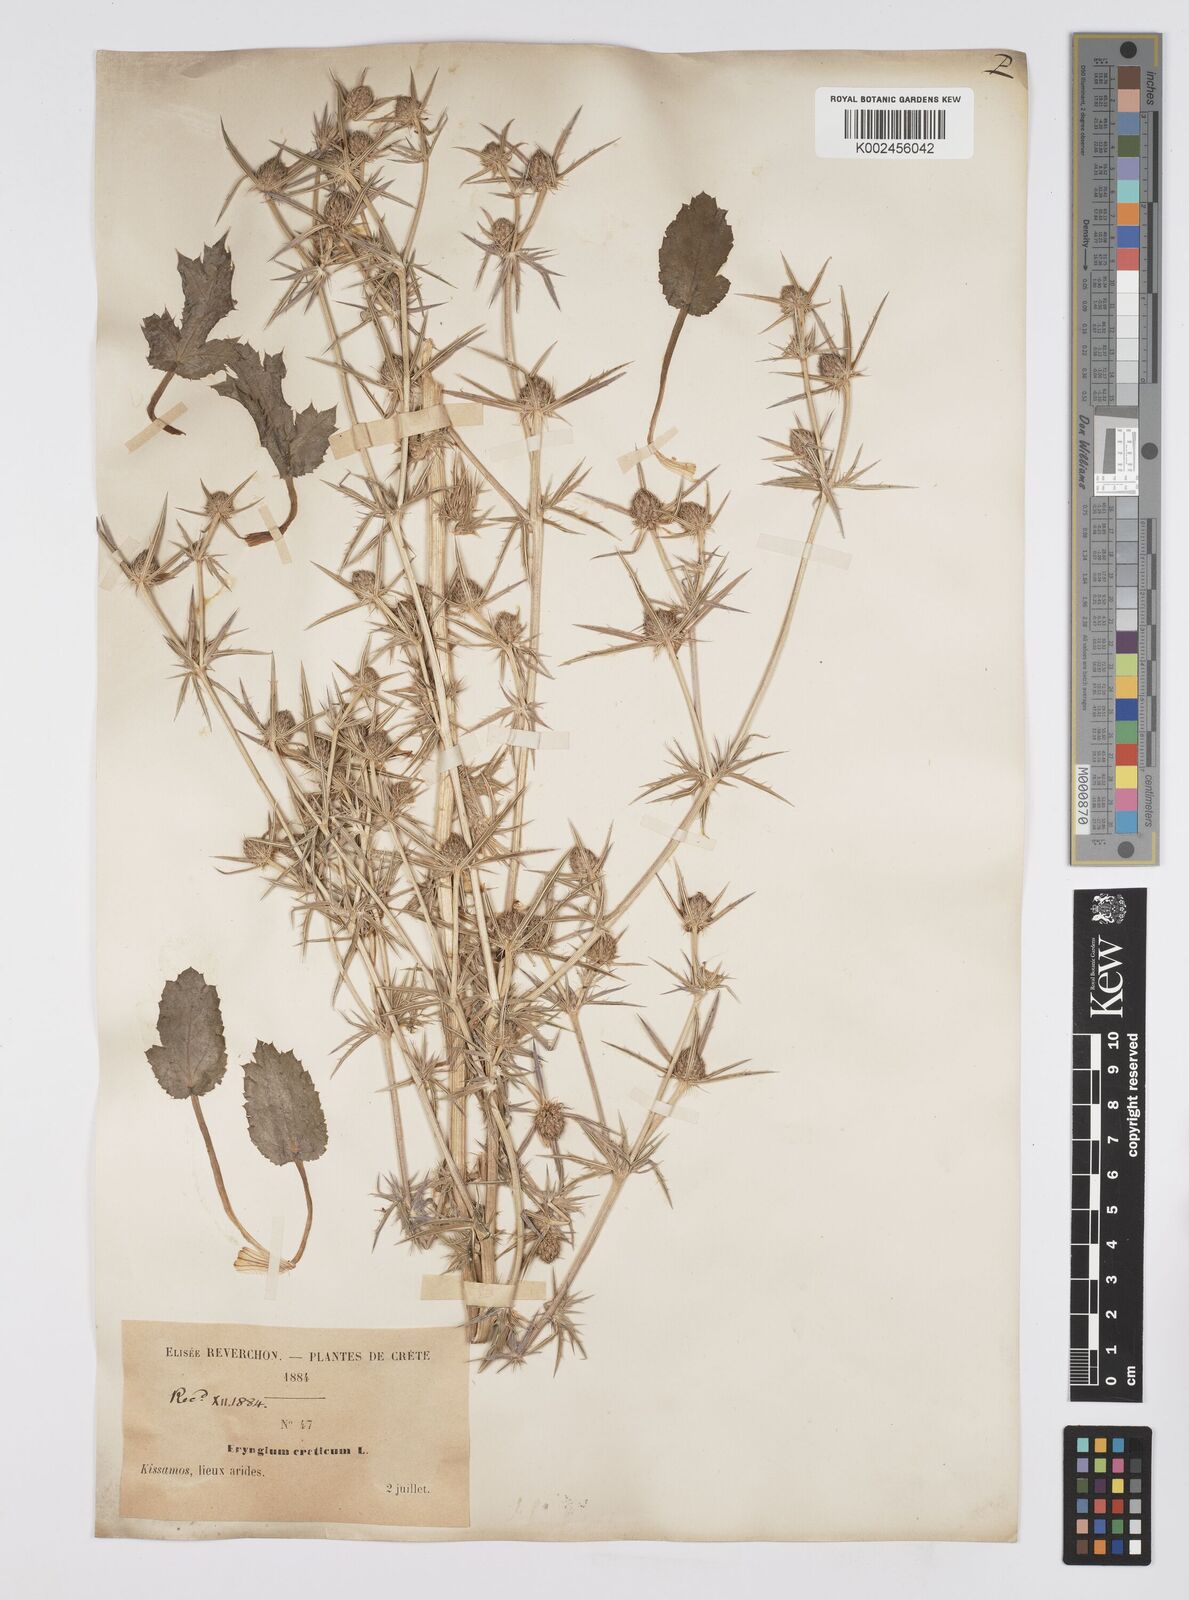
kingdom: Plantae
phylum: Tracheophyta
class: Magnoliopsida
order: Apiales
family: Apiaceae
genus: Eryngium
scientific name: Eryngium creticum
